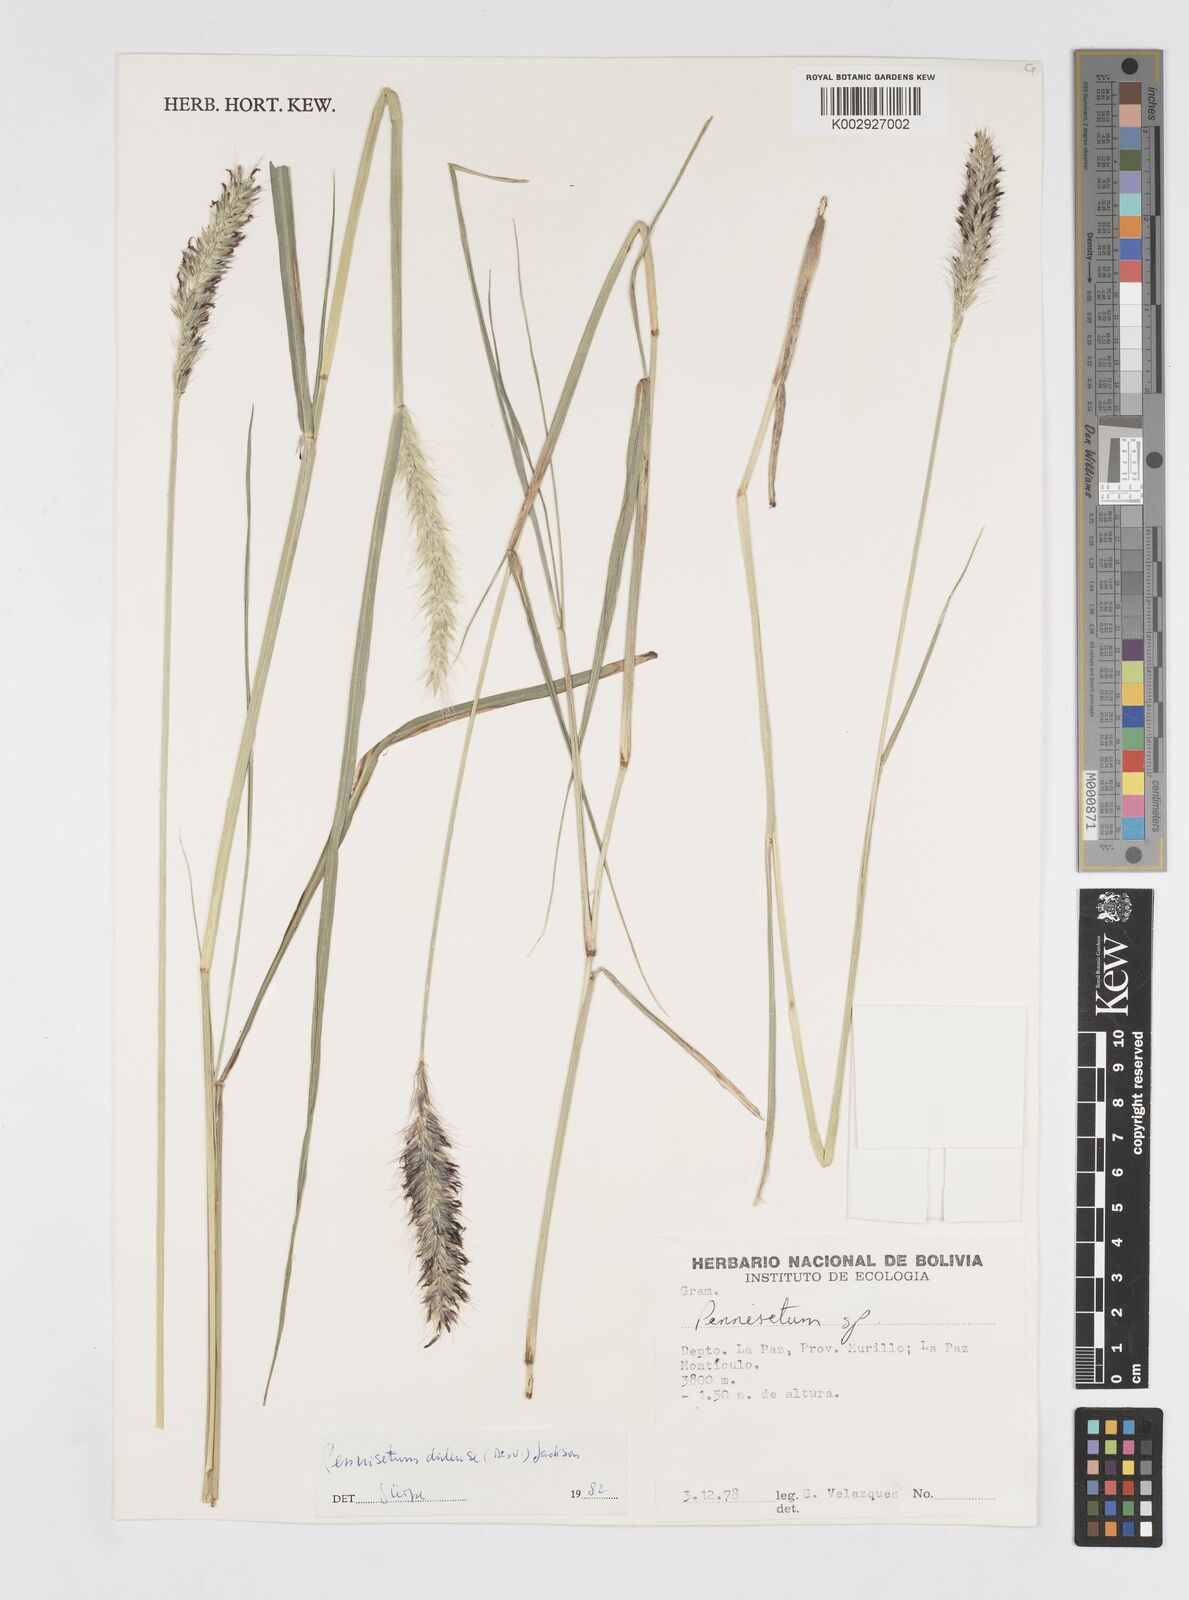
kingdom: Plantae
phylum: Tracheophyta
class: Liliopsida
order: Poales
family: Poaceae
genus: Cenchrus
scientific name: Cenchrus chilensis
